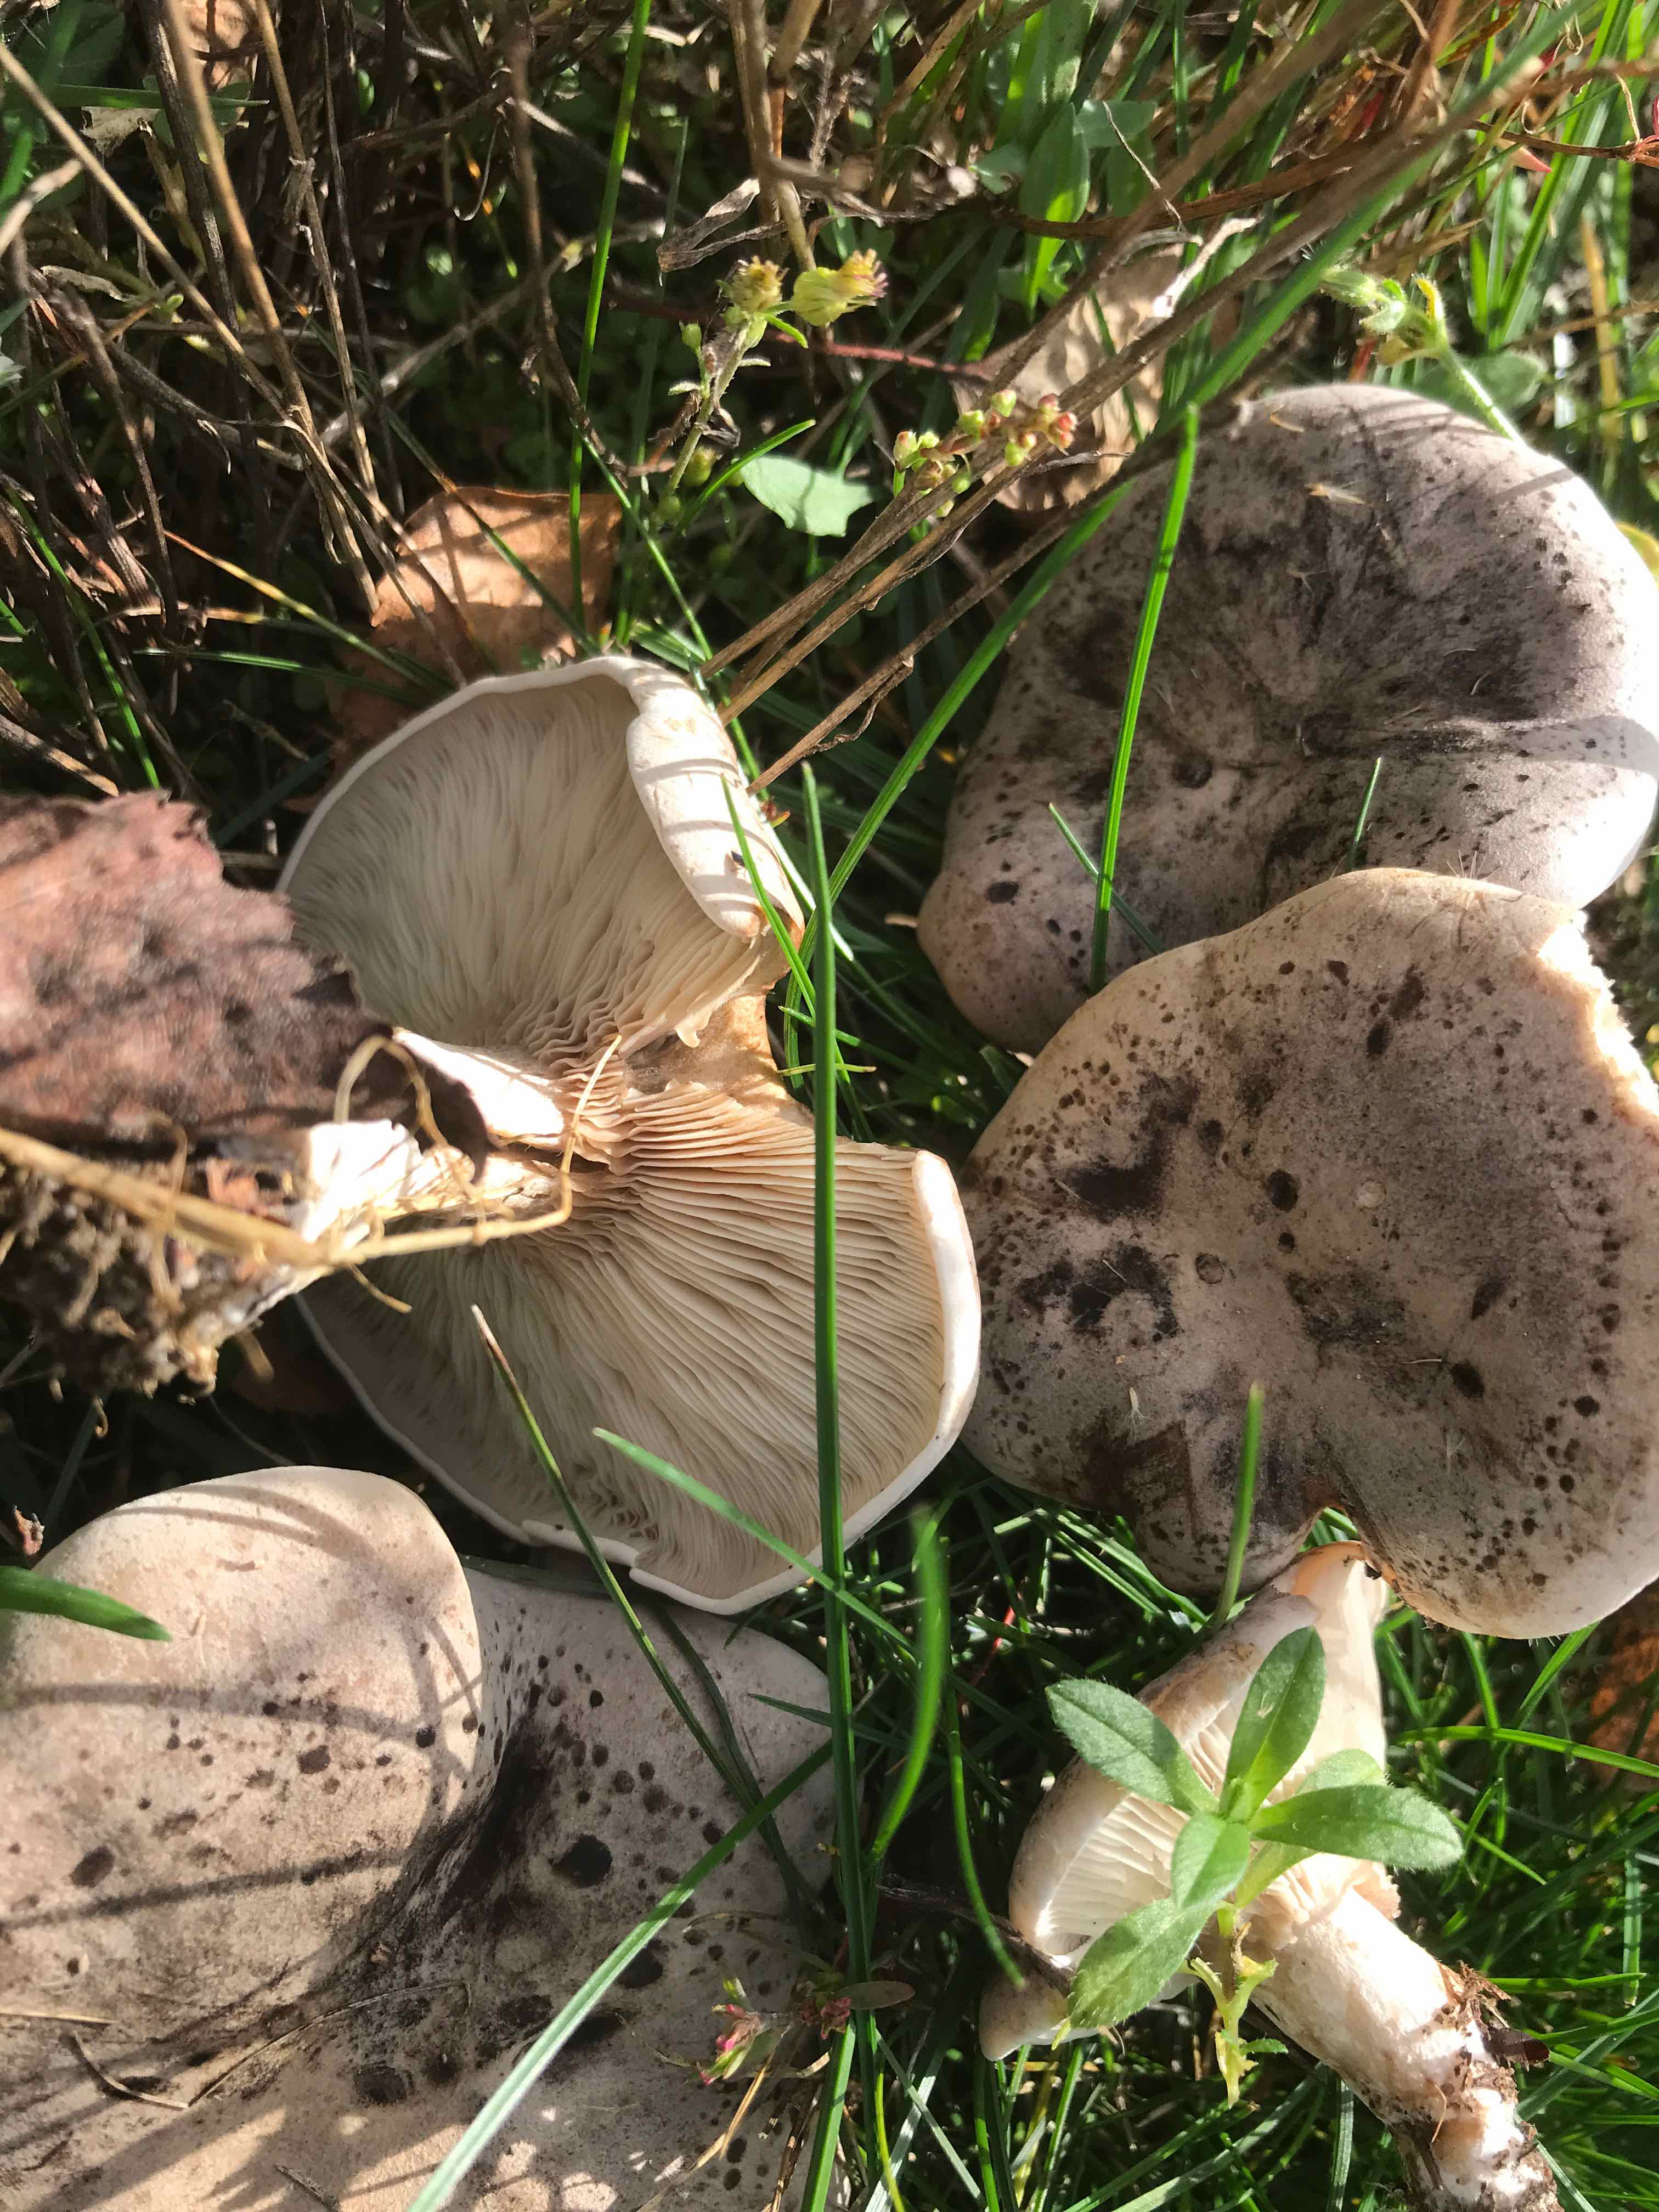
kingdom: Fungi
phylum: Basidiomycota
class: Agaricomycetes
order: Agaricales
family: Tricholomataceae
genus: Lepista
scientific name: Lepista panaeolus
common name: marmoreret hekseringshat
